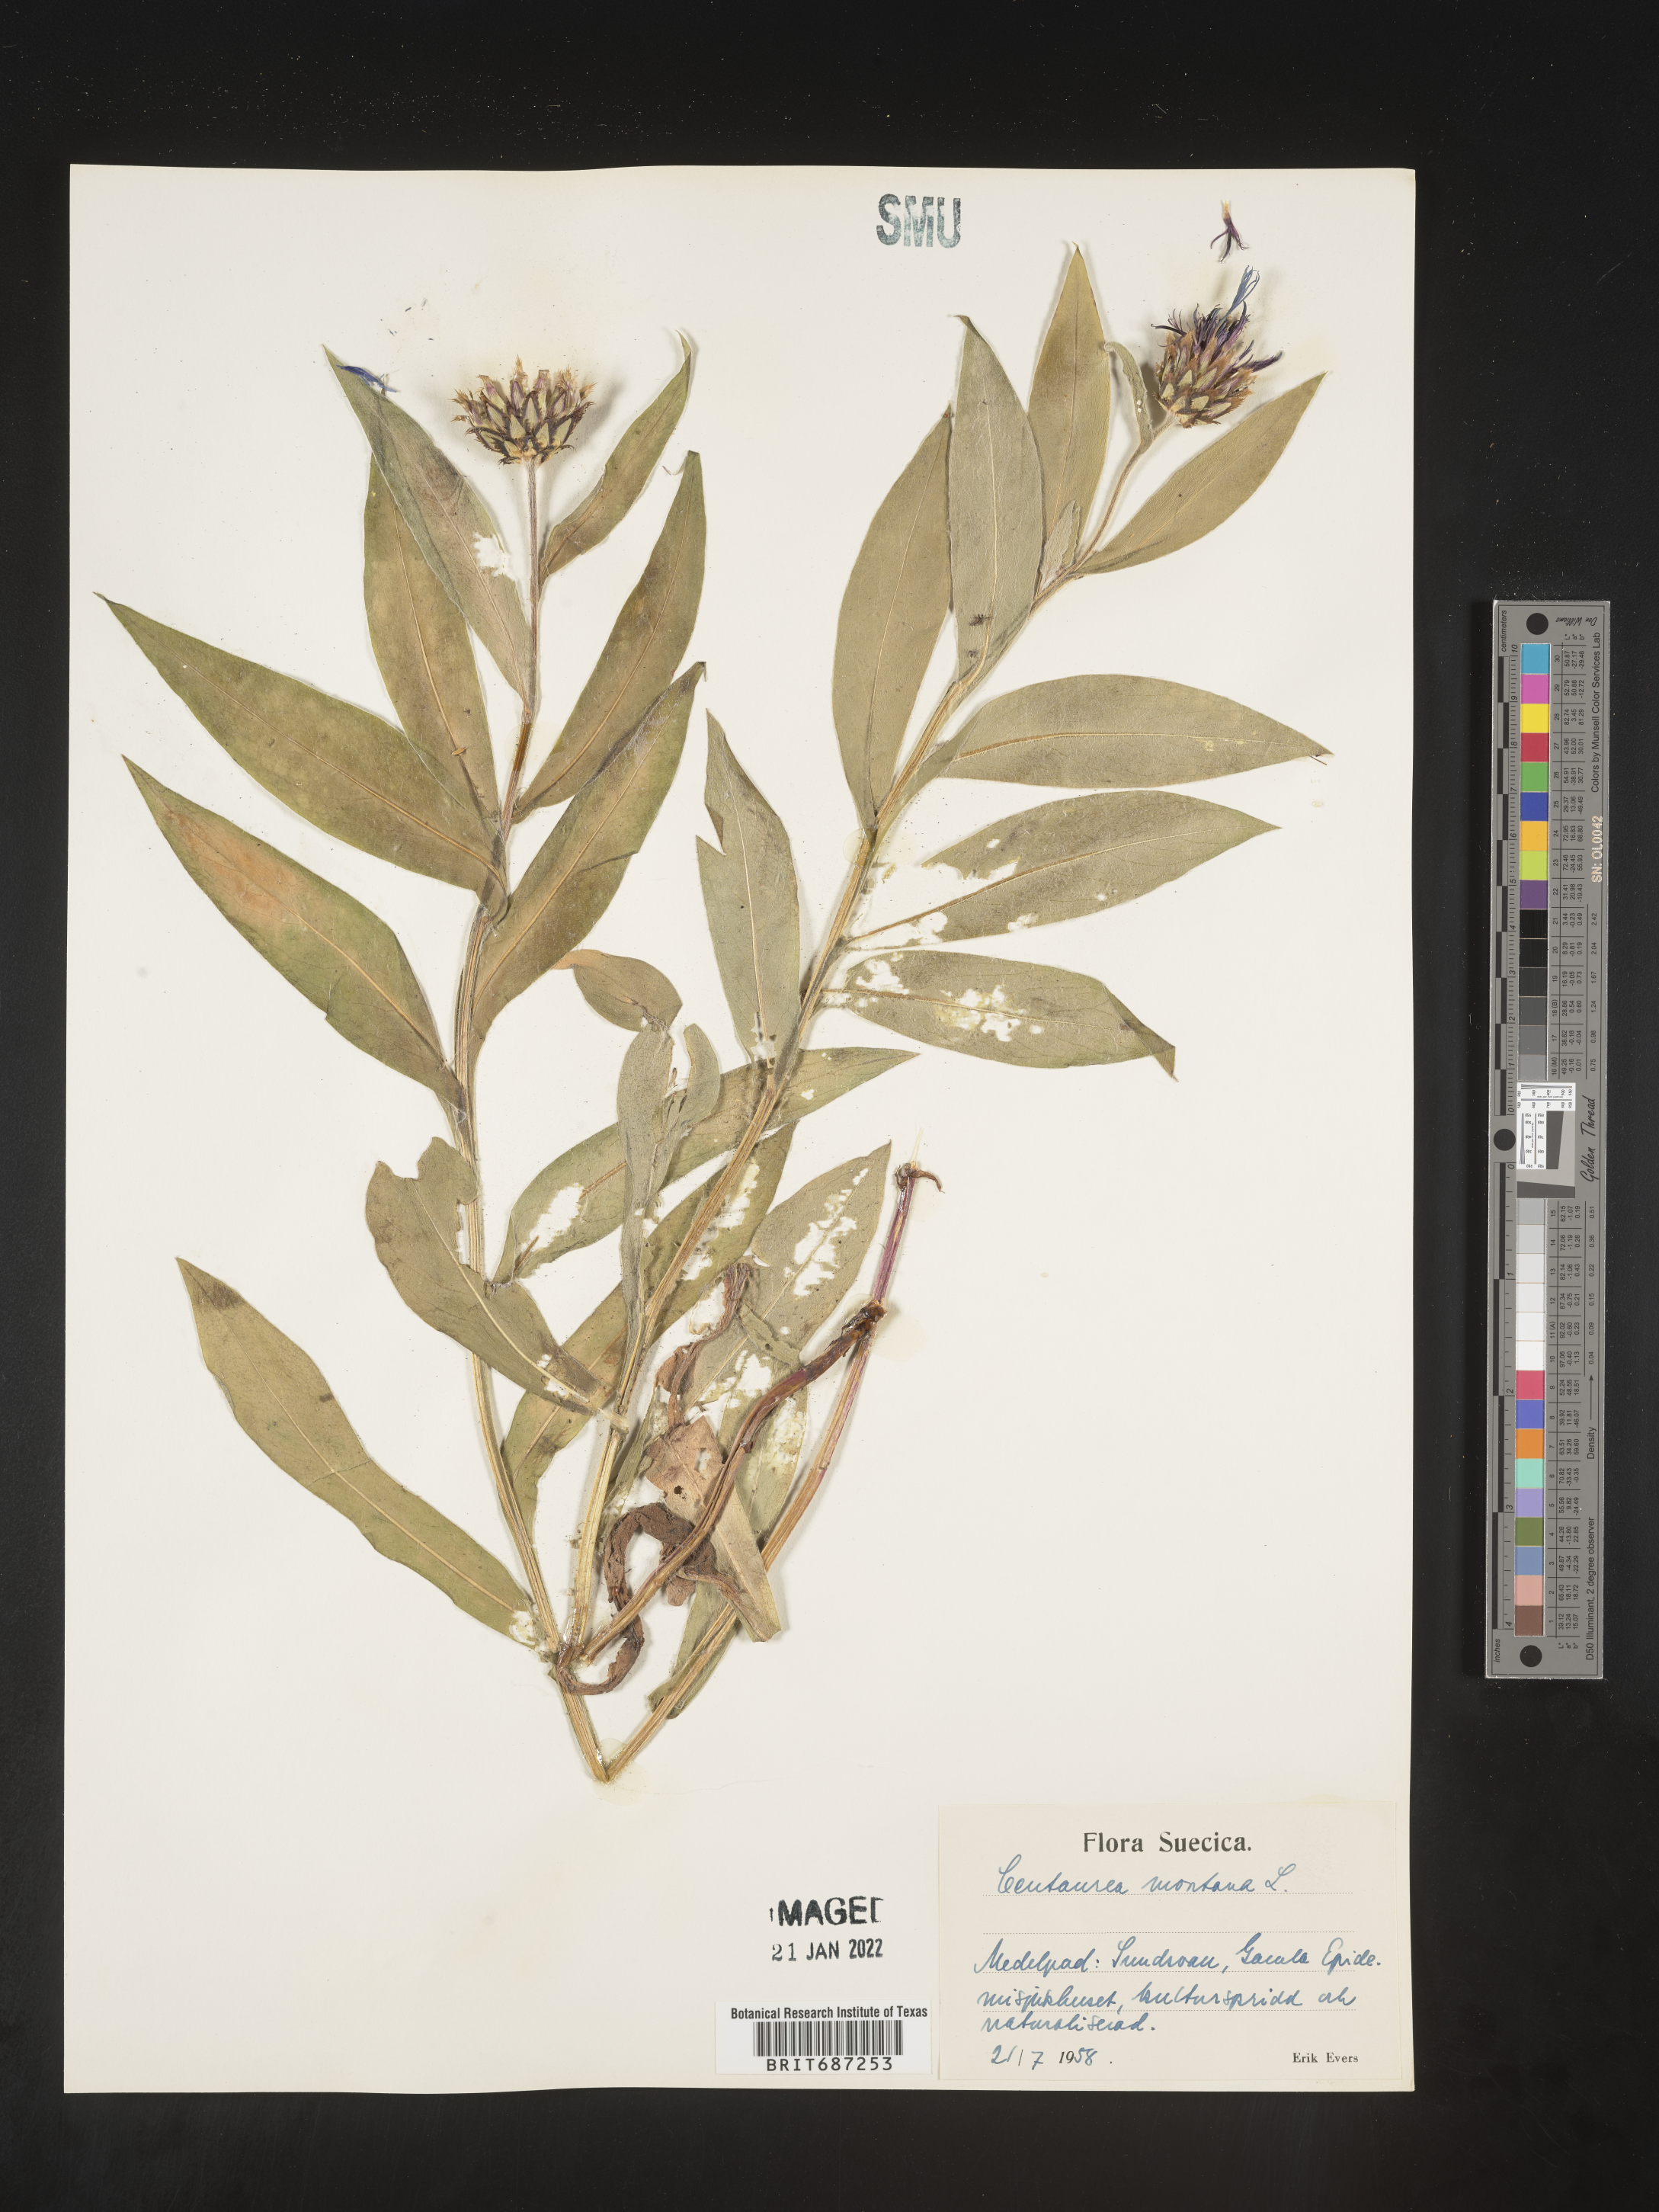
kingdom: Plantae
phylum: Tracheophyta
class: Magnoliopsida
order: Asterales
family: Asteraceae
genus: Centaurea
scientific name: Centaurea
